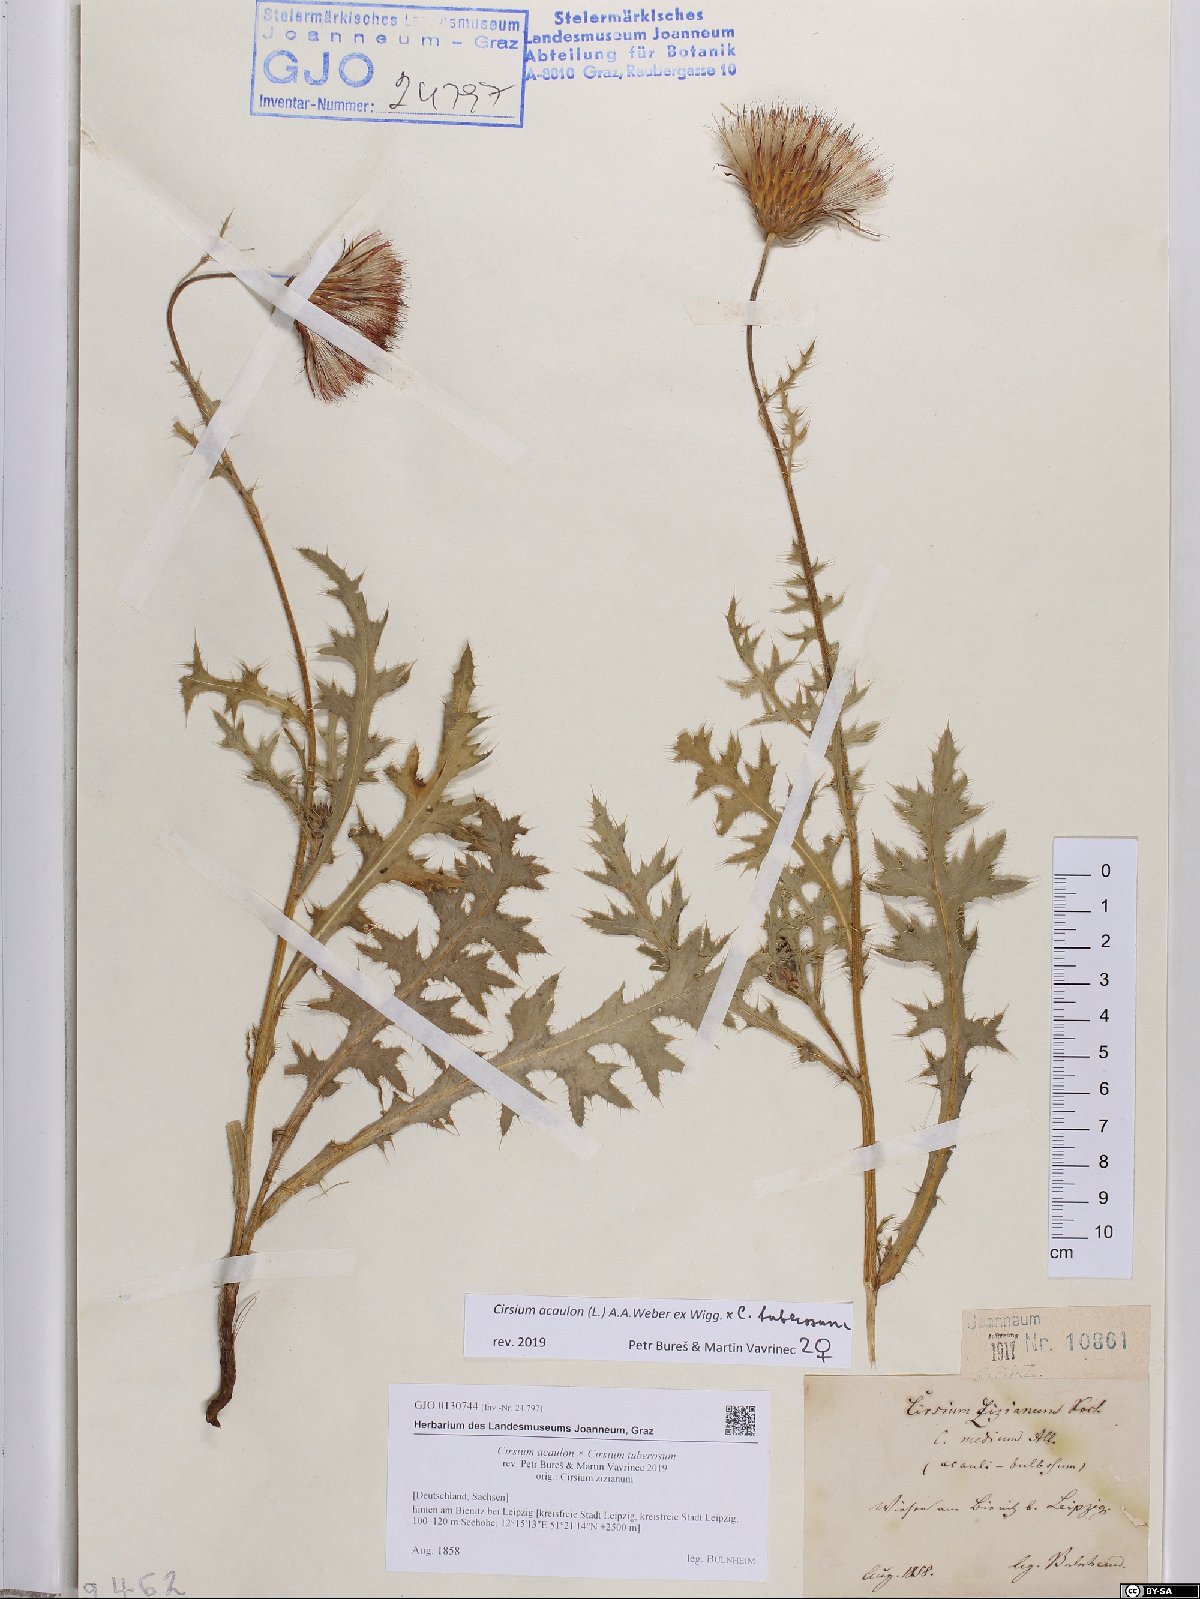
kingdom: Plantae
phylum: Tracheophyta
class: Magnoliopsida
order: Asterales
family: Asteraceae
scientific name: Asteraceae
